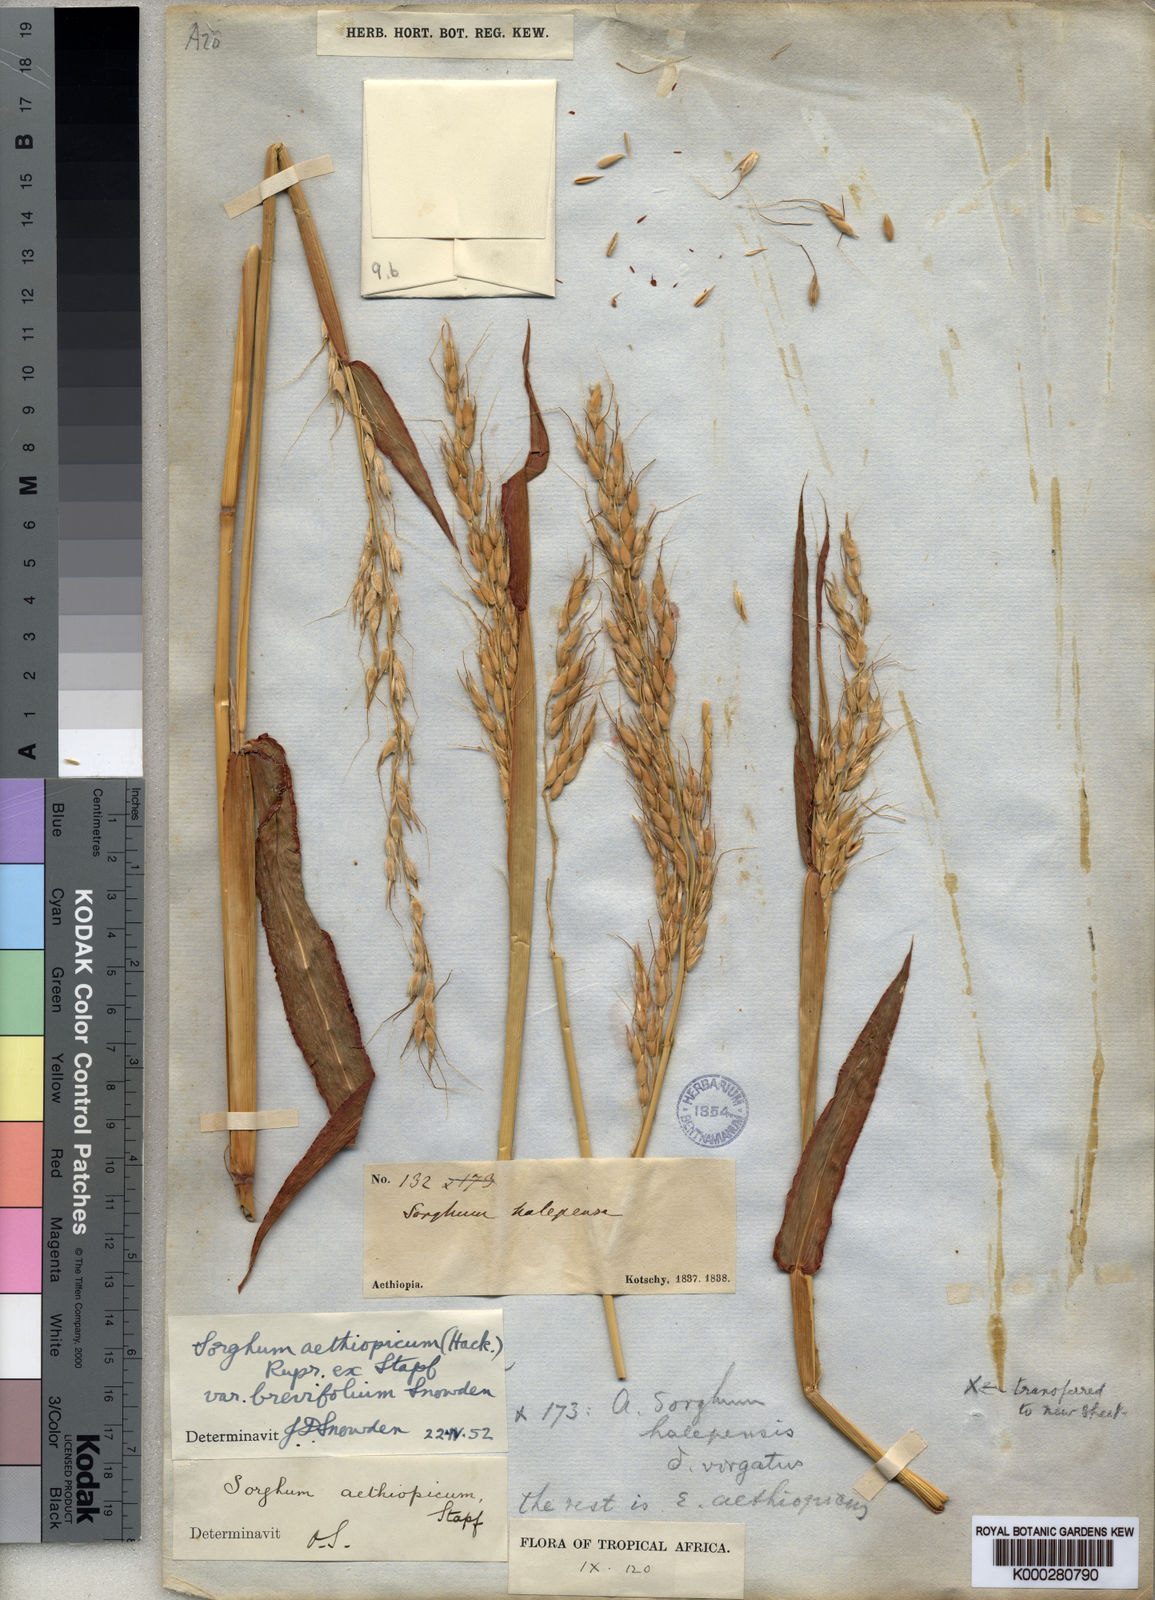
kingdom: Plantae
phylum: Tracheophyta
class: Liliopsida
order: Poales
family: Poaceae
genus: Sorghum
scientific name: Sorghum arundinaceum
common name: Sorghum
